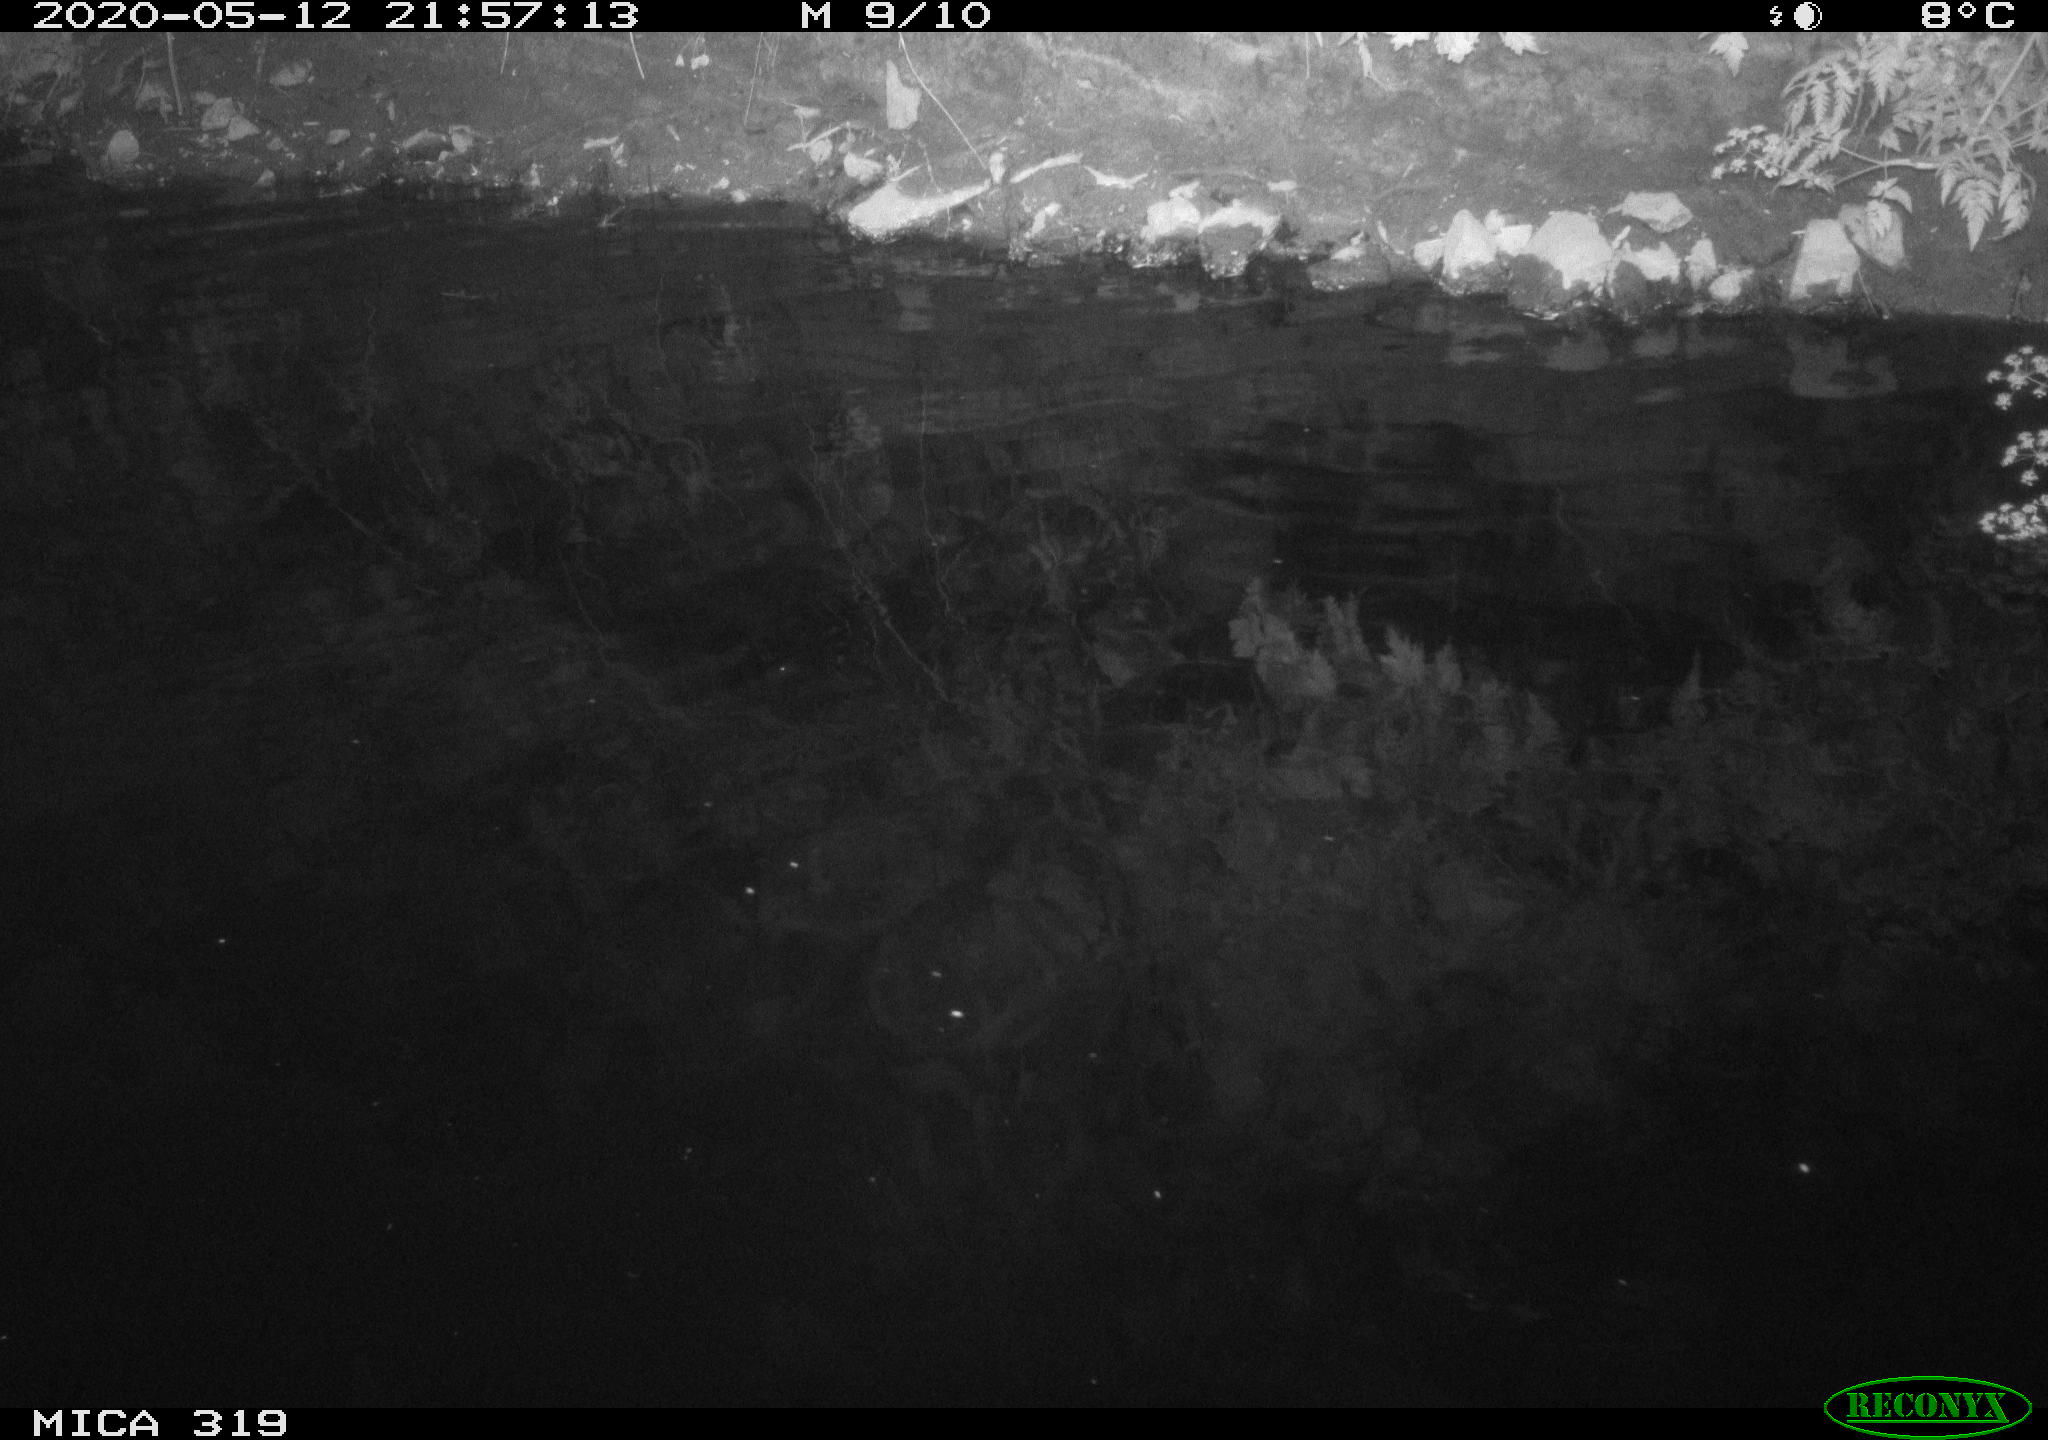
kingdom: Animalia
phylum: Chordata
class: Aves
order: Anseriformes
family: Anatidae
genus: Anas
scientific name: Anas platyrhynchos
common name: Mallard
